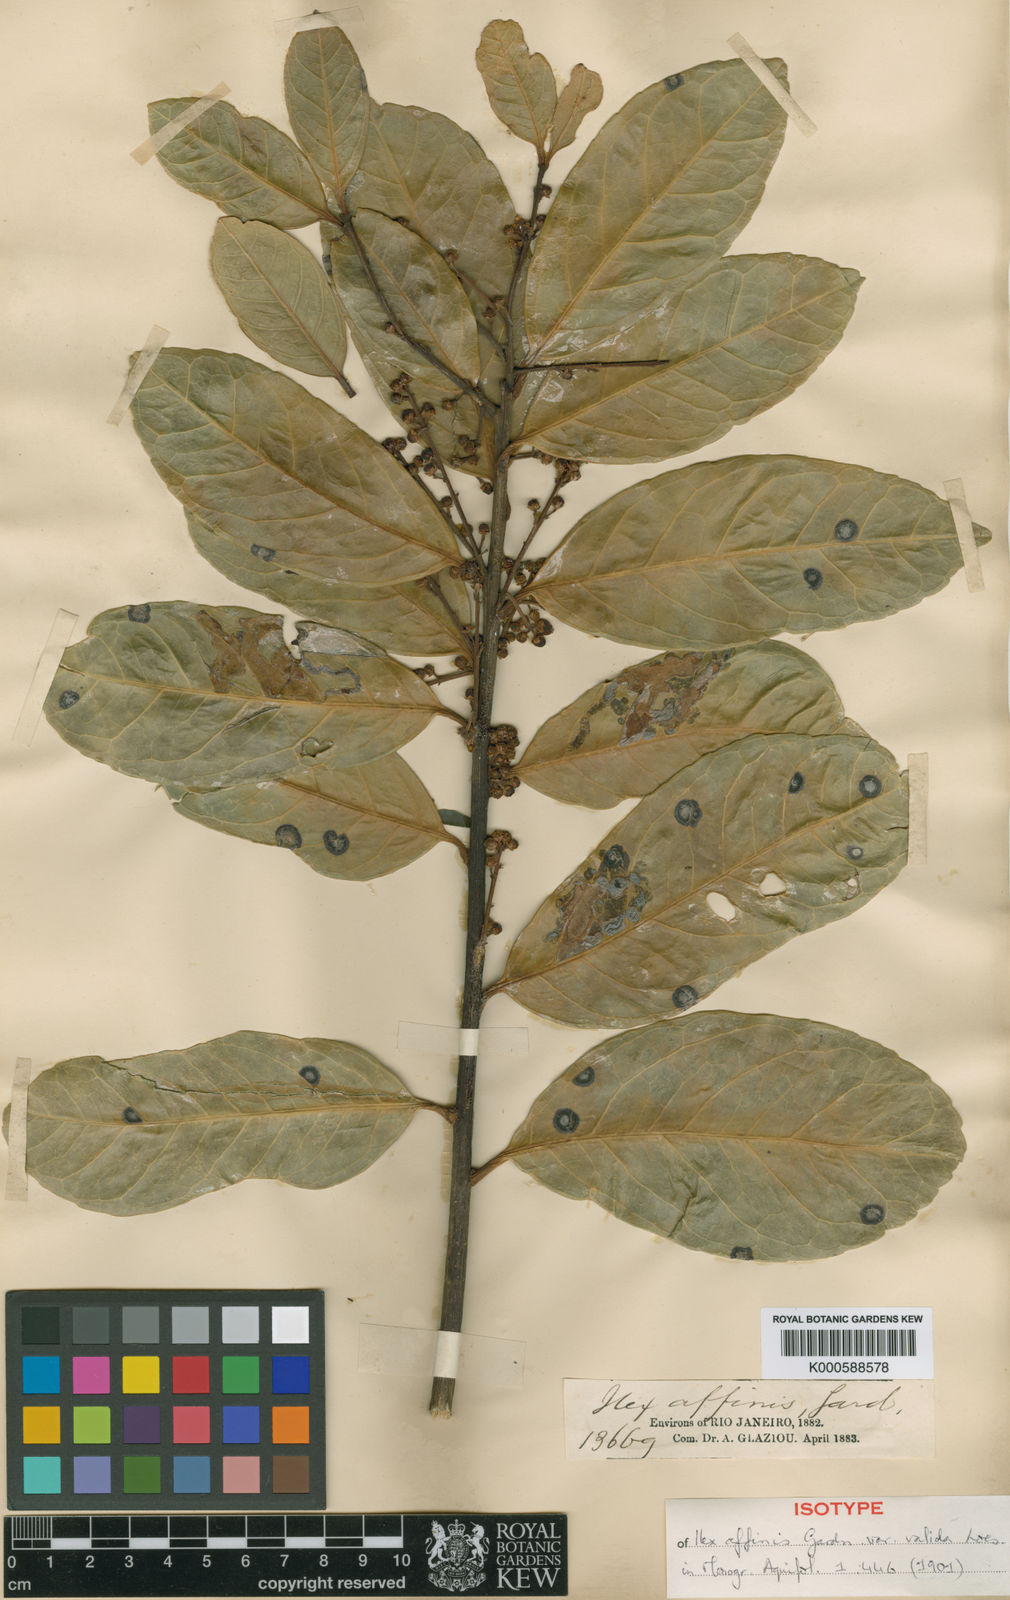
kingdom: Plantae
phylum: Tracheophyta
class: Magnoliopsida
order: Aquifoliales
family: Aquifoliaceae
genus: Ilex
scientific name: Ilex affinis
